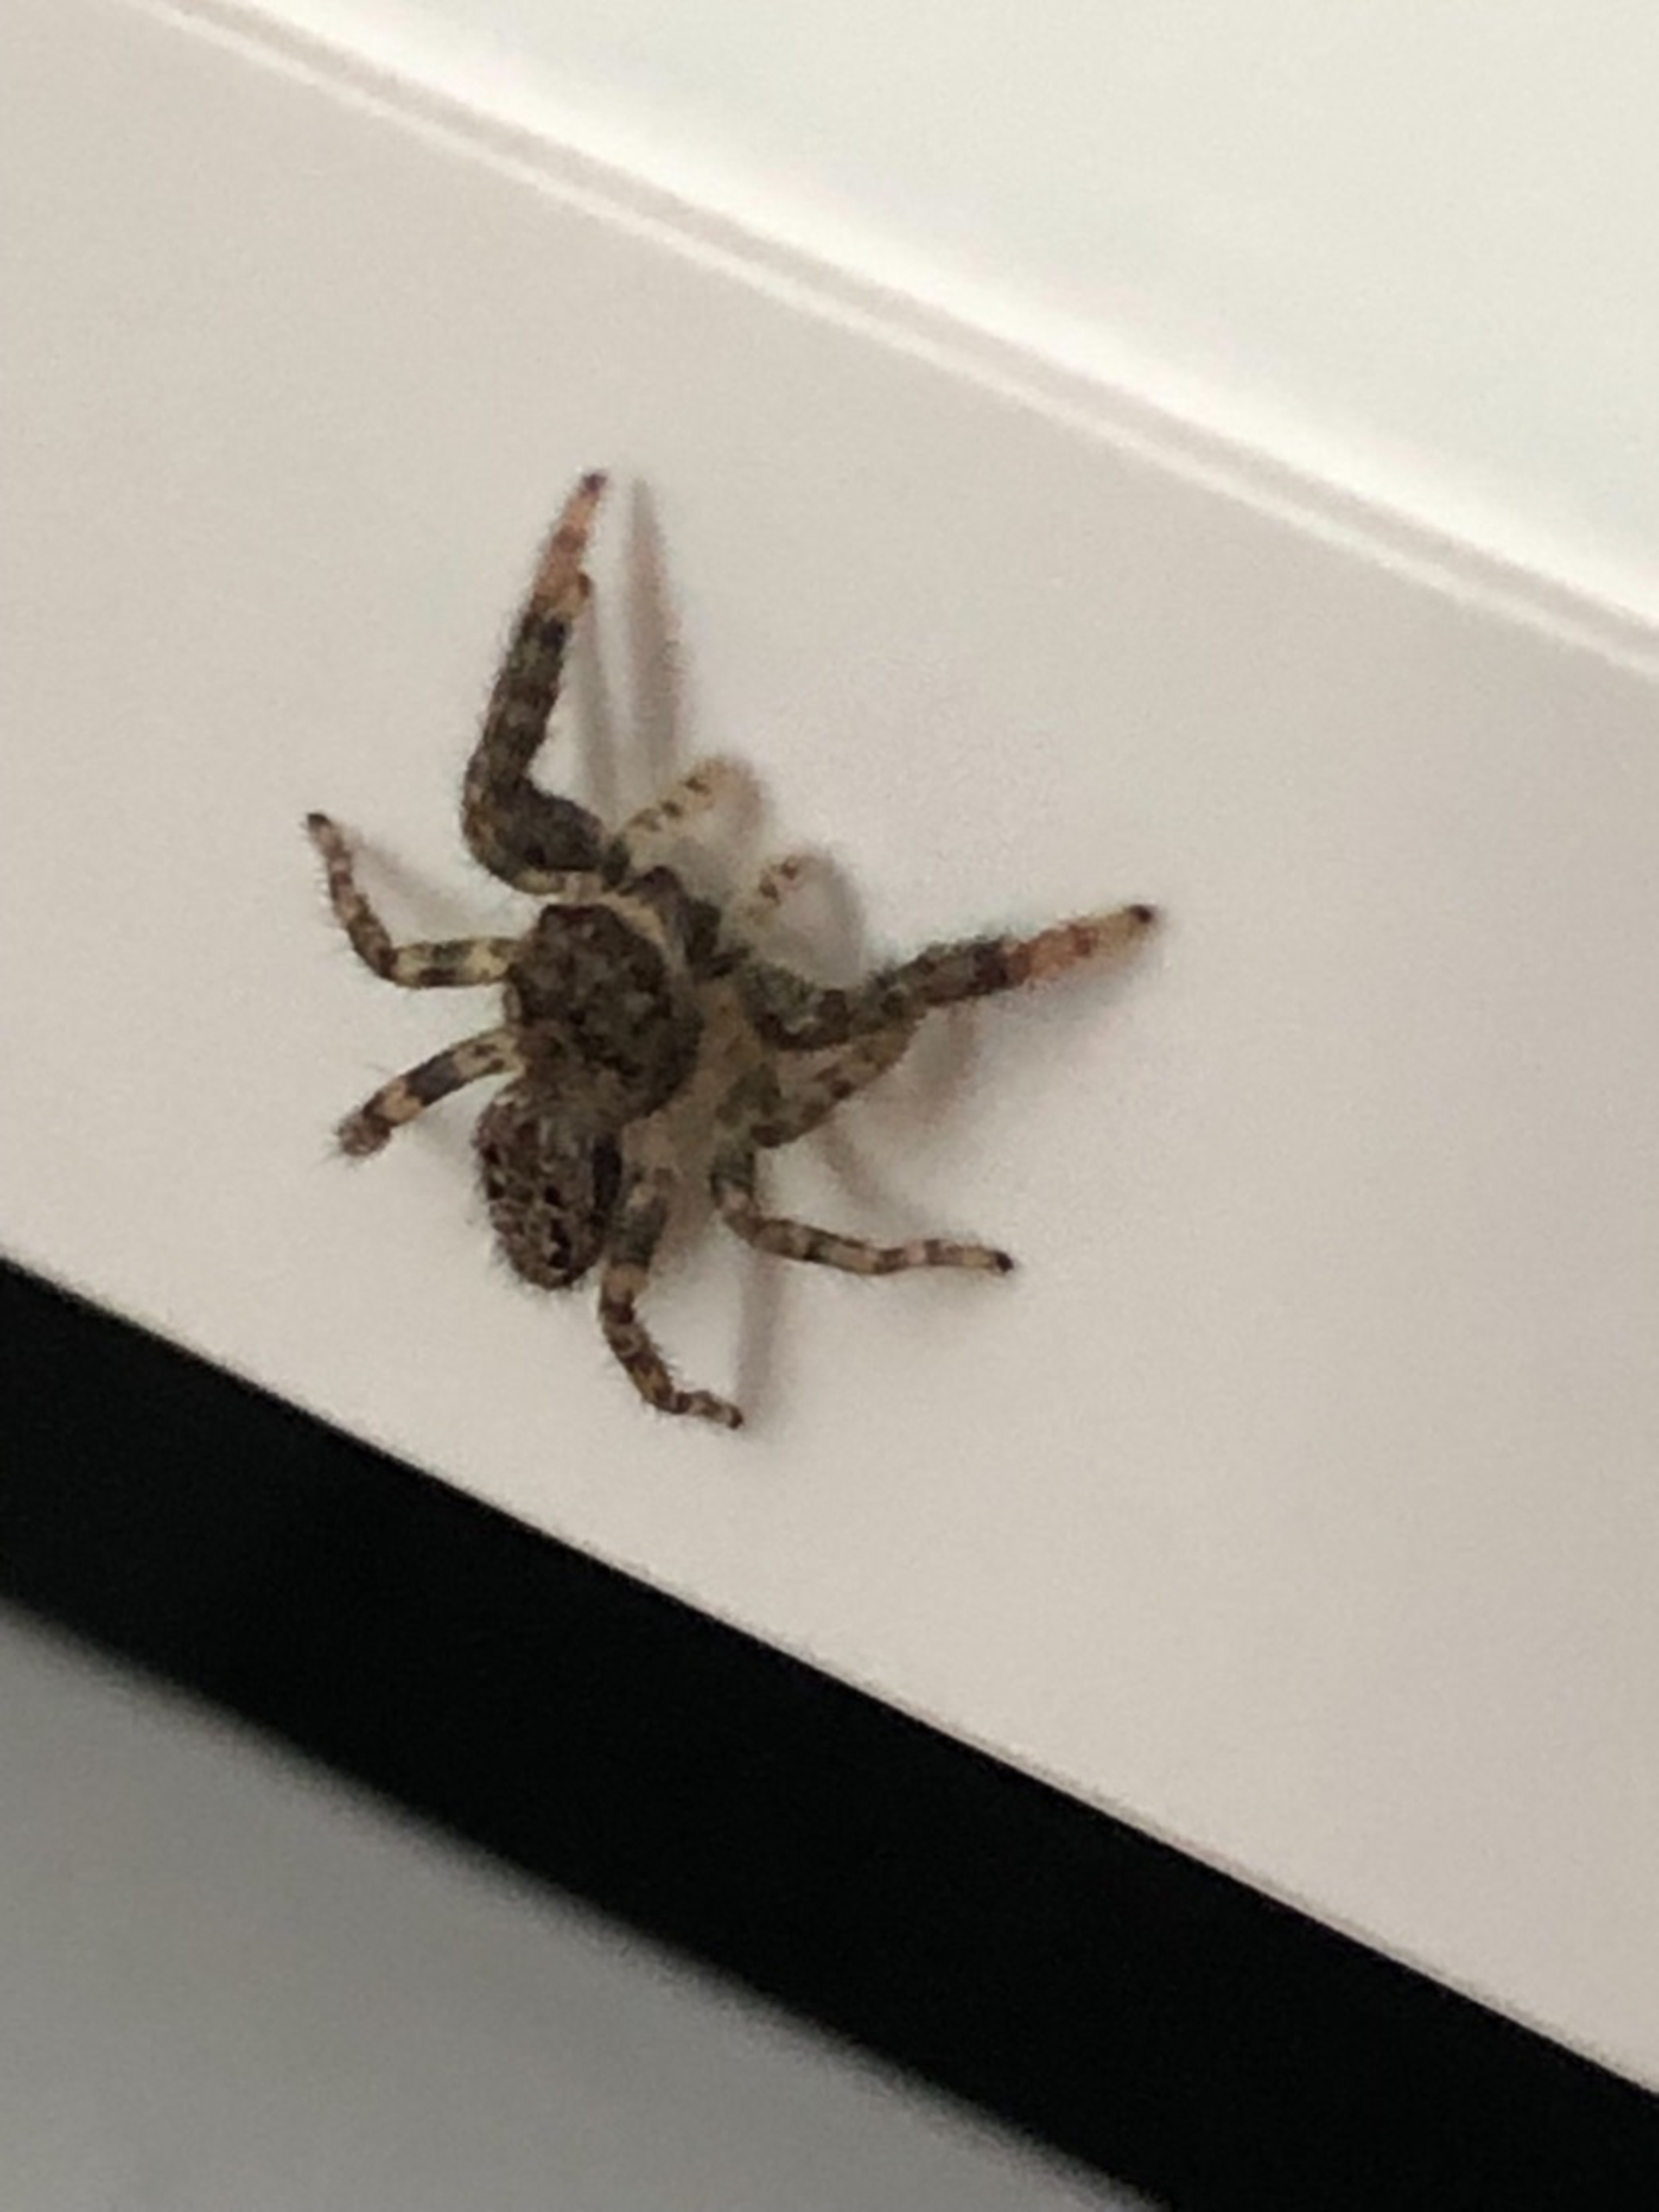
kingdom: Animalia
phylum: Arthropoda
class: Arachnida
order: Araneae
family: Salticidae
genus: Marpissa
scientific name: Marpissa muscosa
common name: Stor springedderkop
